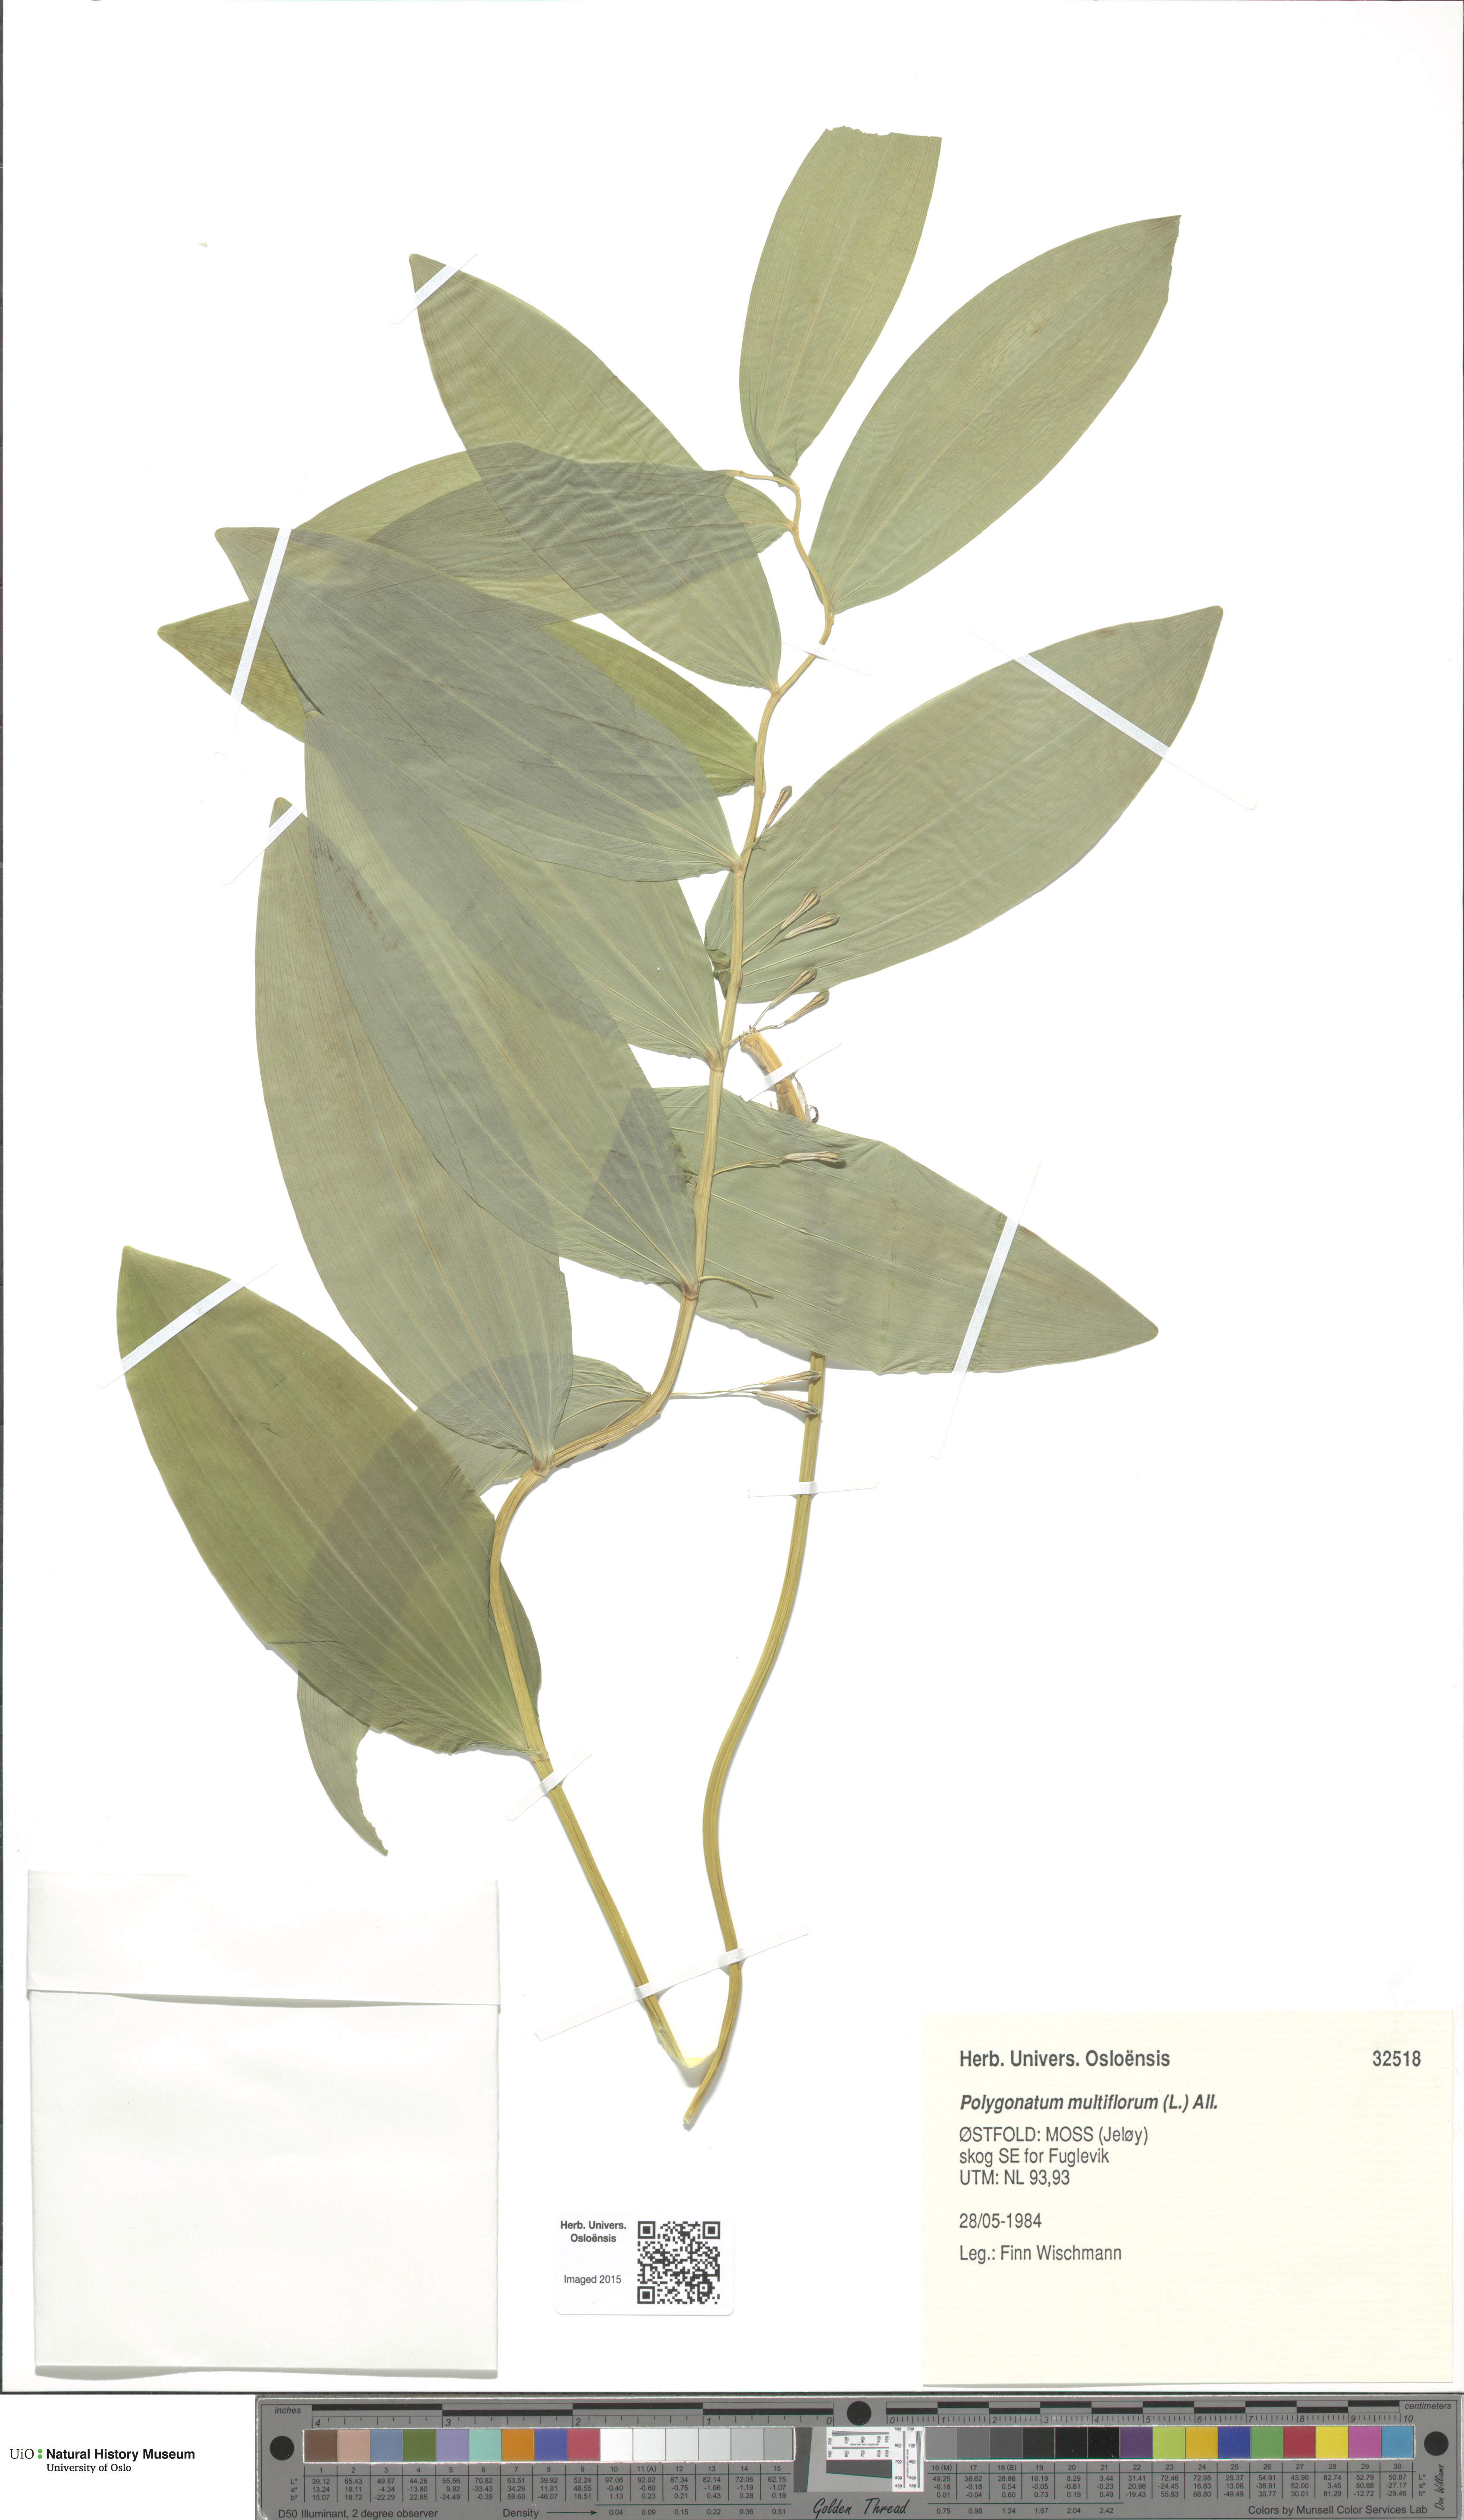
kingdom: Plantae
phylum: Tracheophyta
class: Liliopsida
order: Asparagales
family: Asparagaceae
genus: Polygonatum
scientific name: Polygonatum multiflorum
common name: Solomon's-seal
